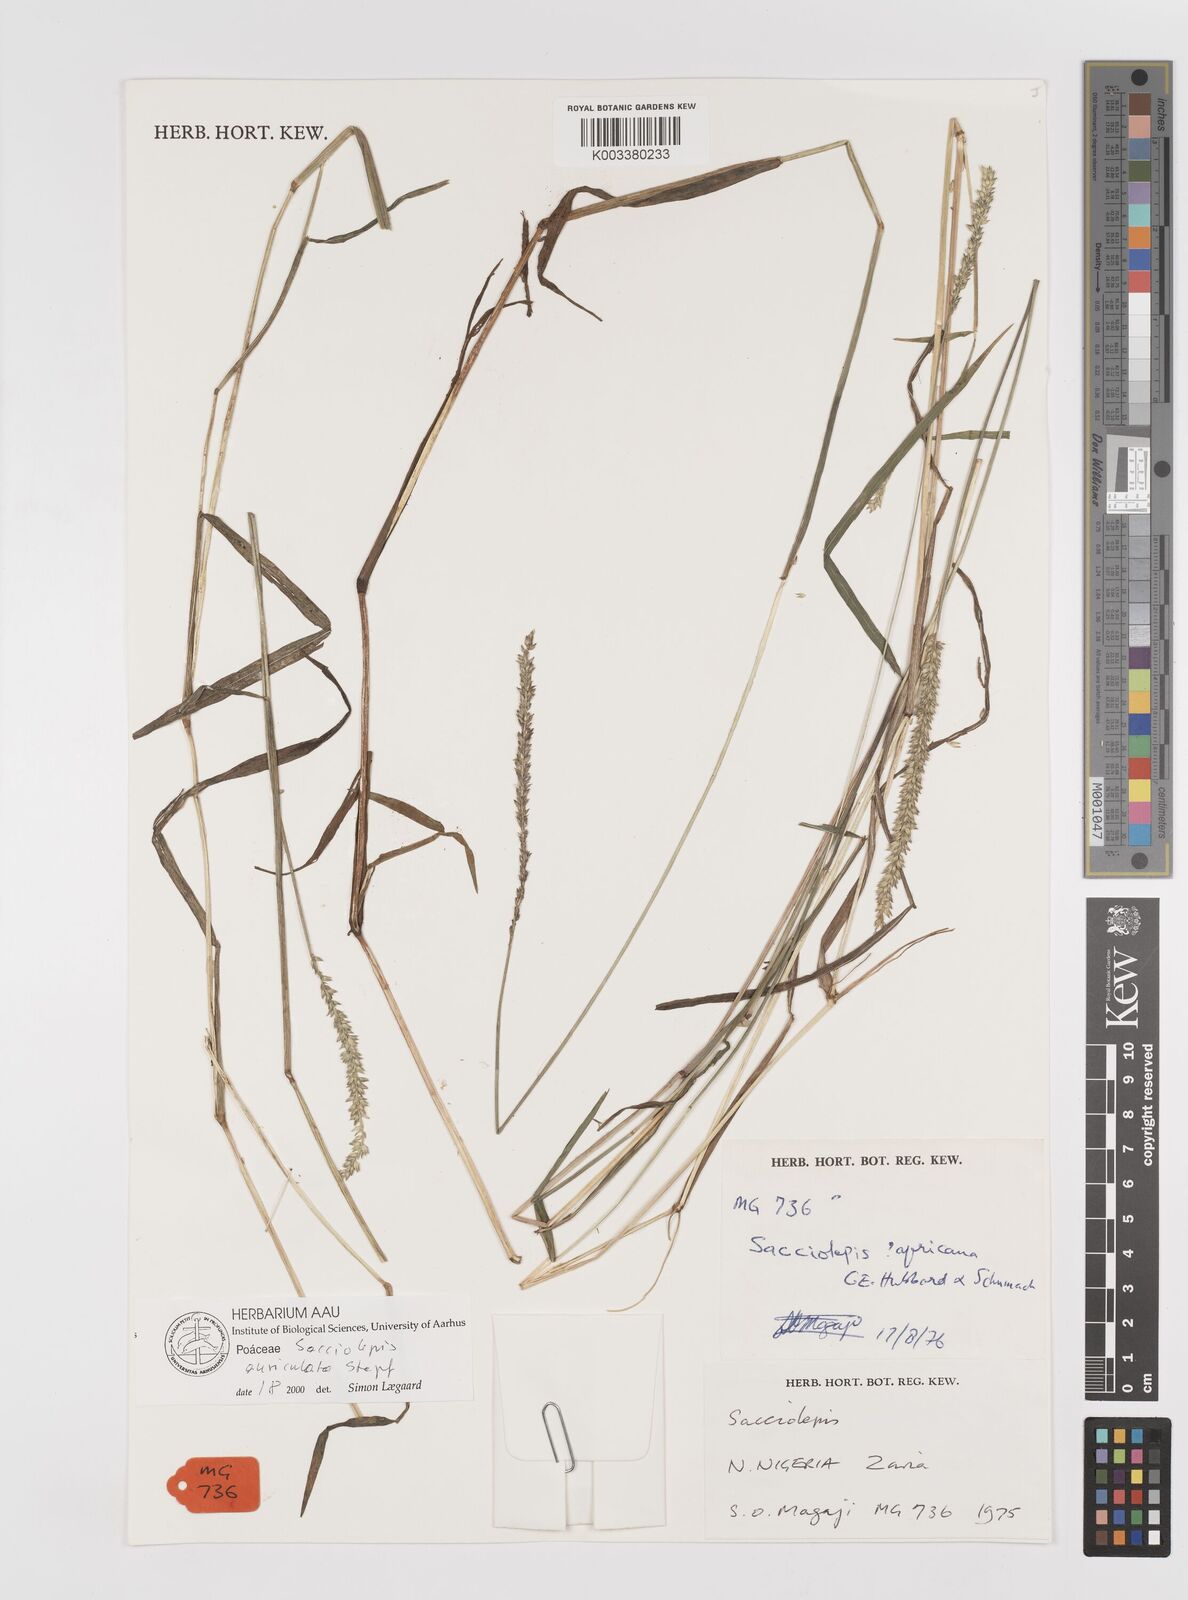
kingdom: Plantae
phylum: Tracheophyta
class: Liliopsida
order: Poales
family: Poaceae
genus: Sacciolepis
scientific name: Sacciolepis indica
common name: Glenwoodgrass
